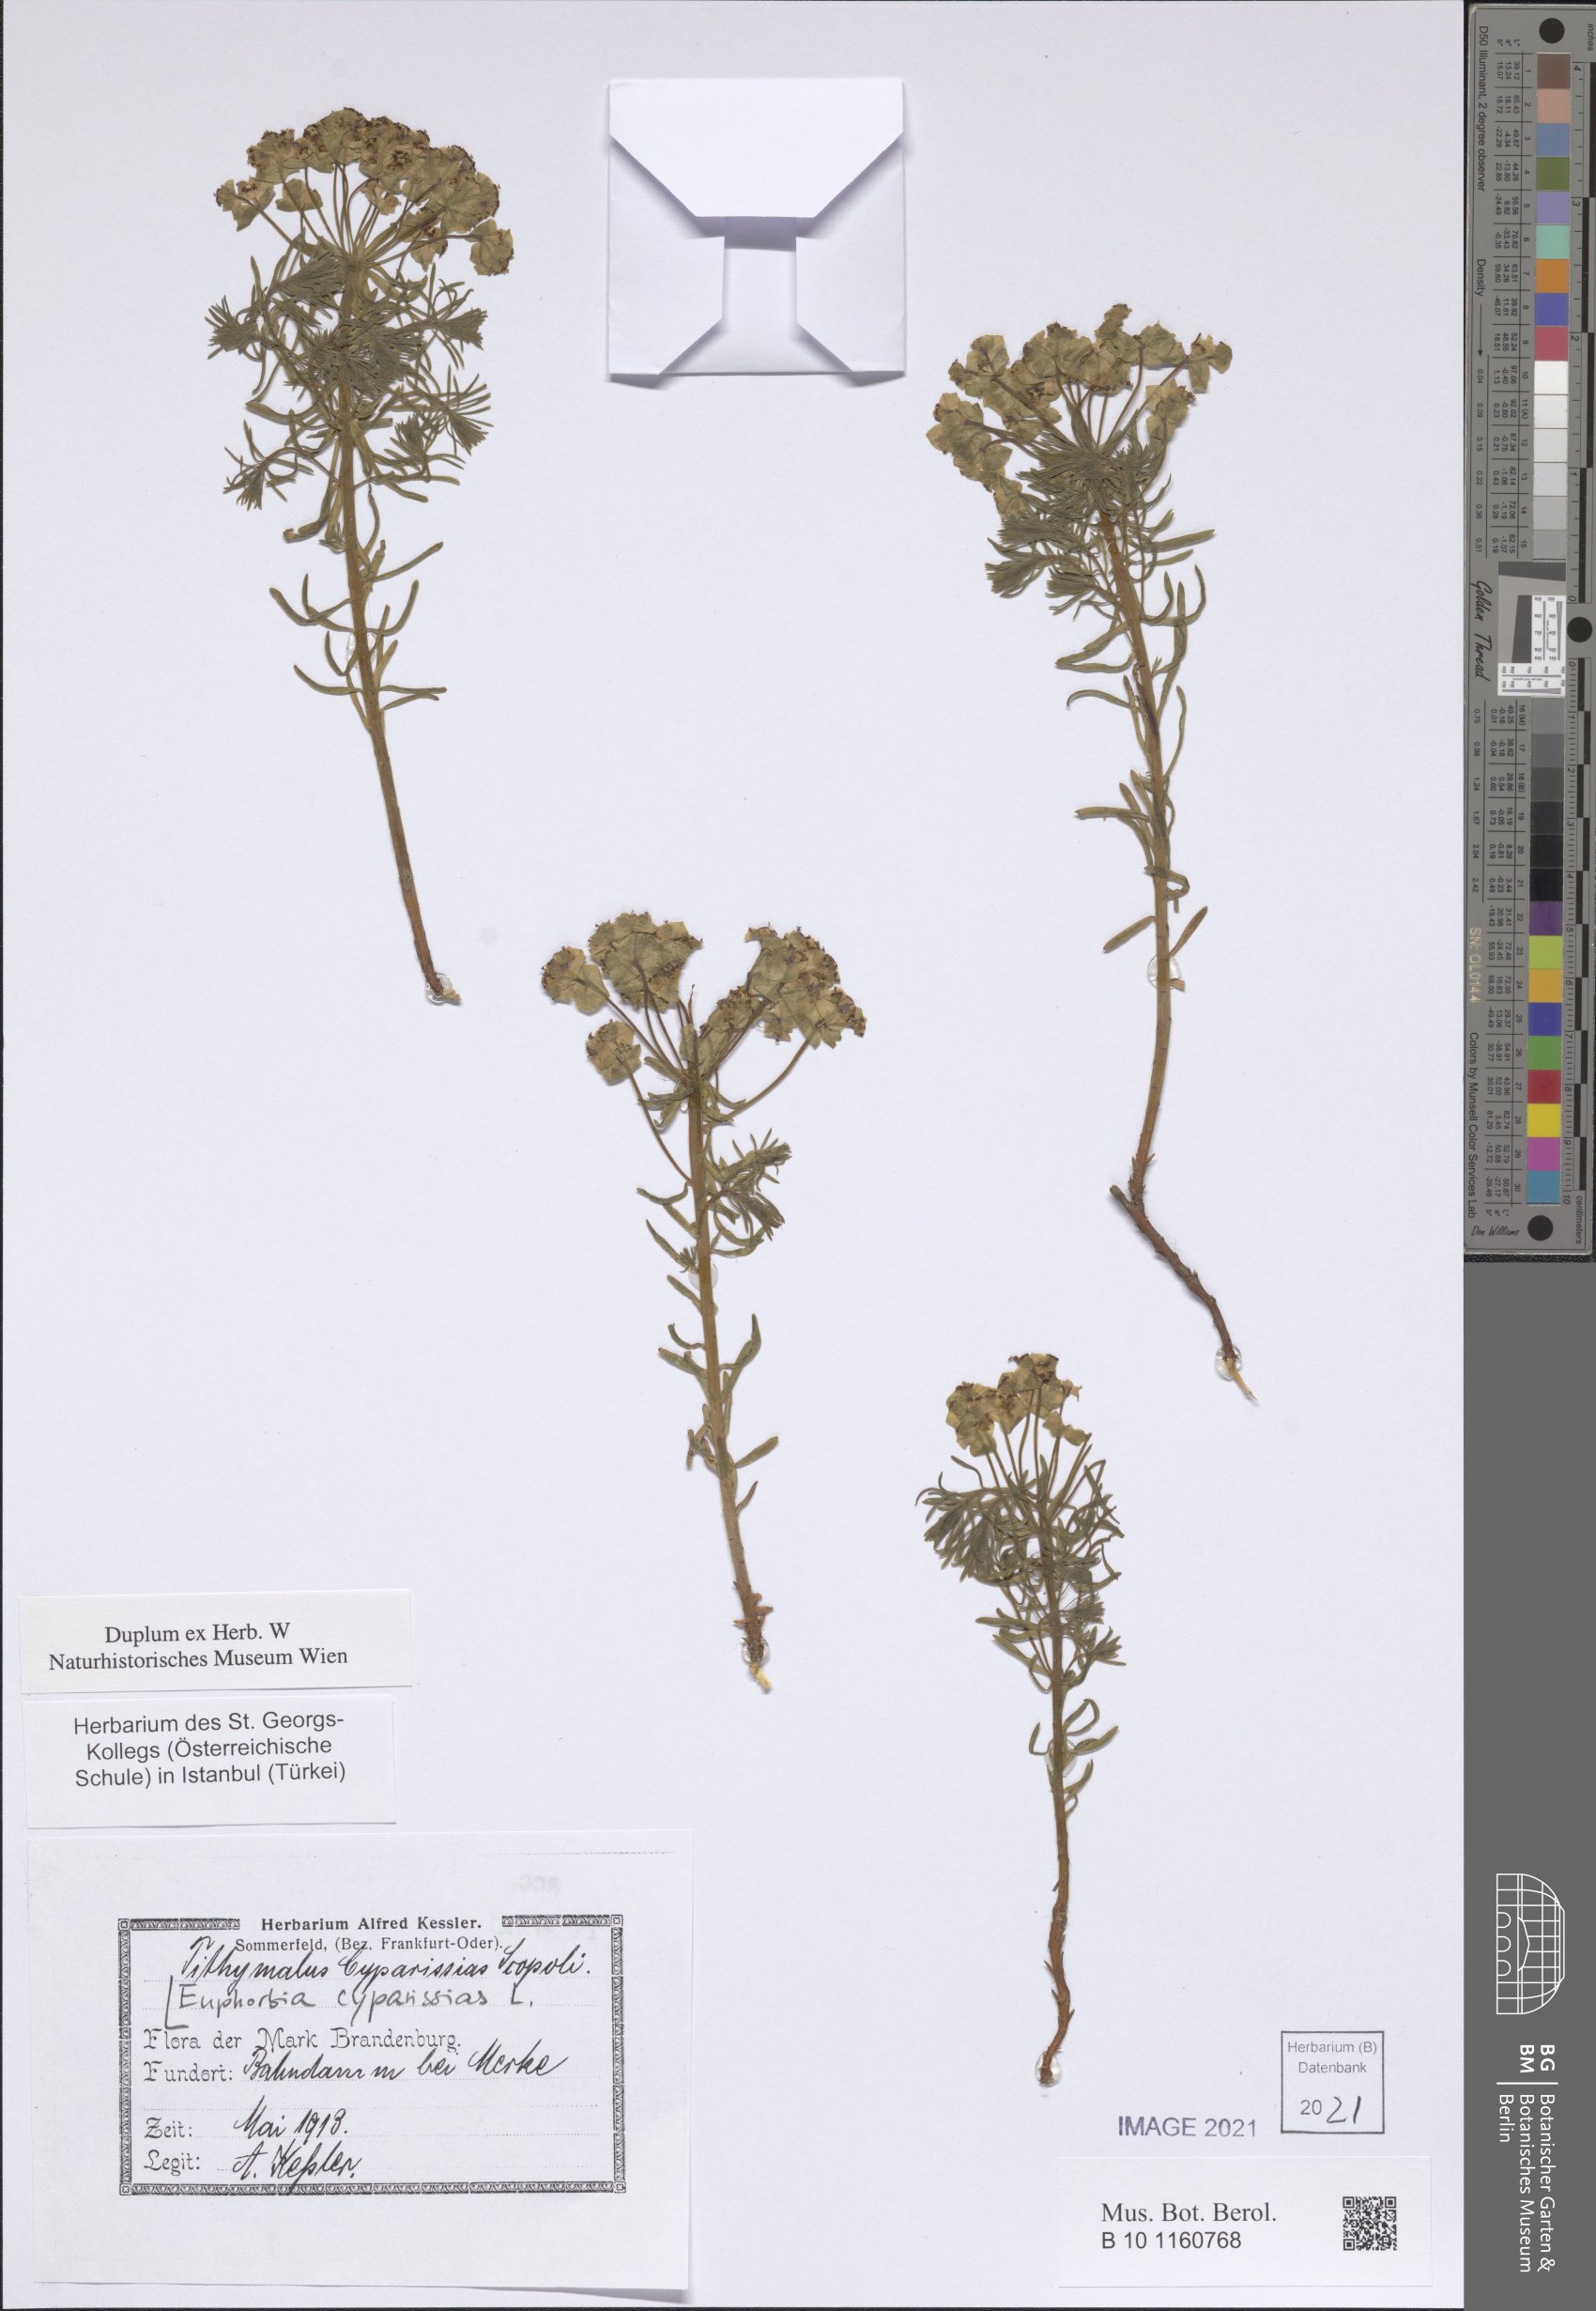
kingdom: Plantae
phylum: Tracheophyta
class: Magnoliopsida
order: Malpighiales
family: Euphorbiaceae
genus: Euphorbia
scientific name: Euphorbia cyparissias
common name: Cypress spurge
